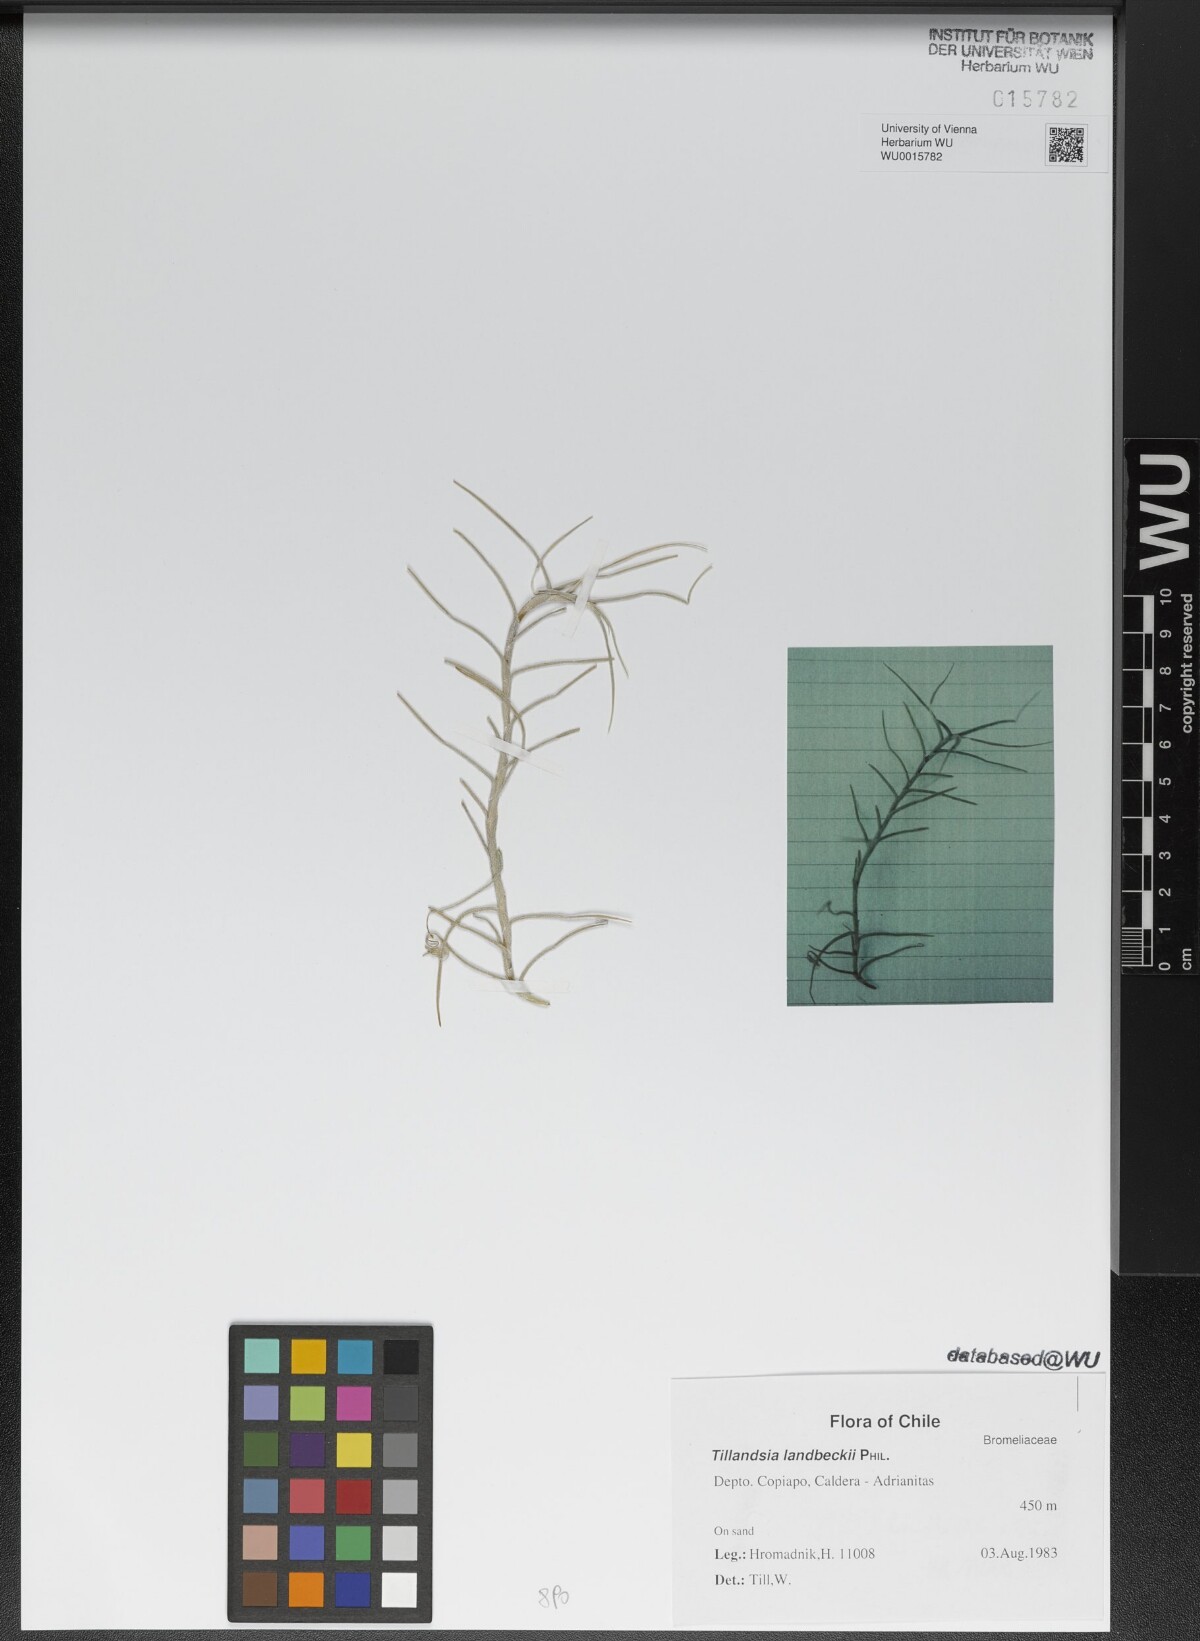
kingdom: Plantae
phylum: Tracheophyta
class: Liliopsida
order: Poales
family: Bromeliaceae
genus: Tillandsia
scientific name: Tillandsia landbeckii
